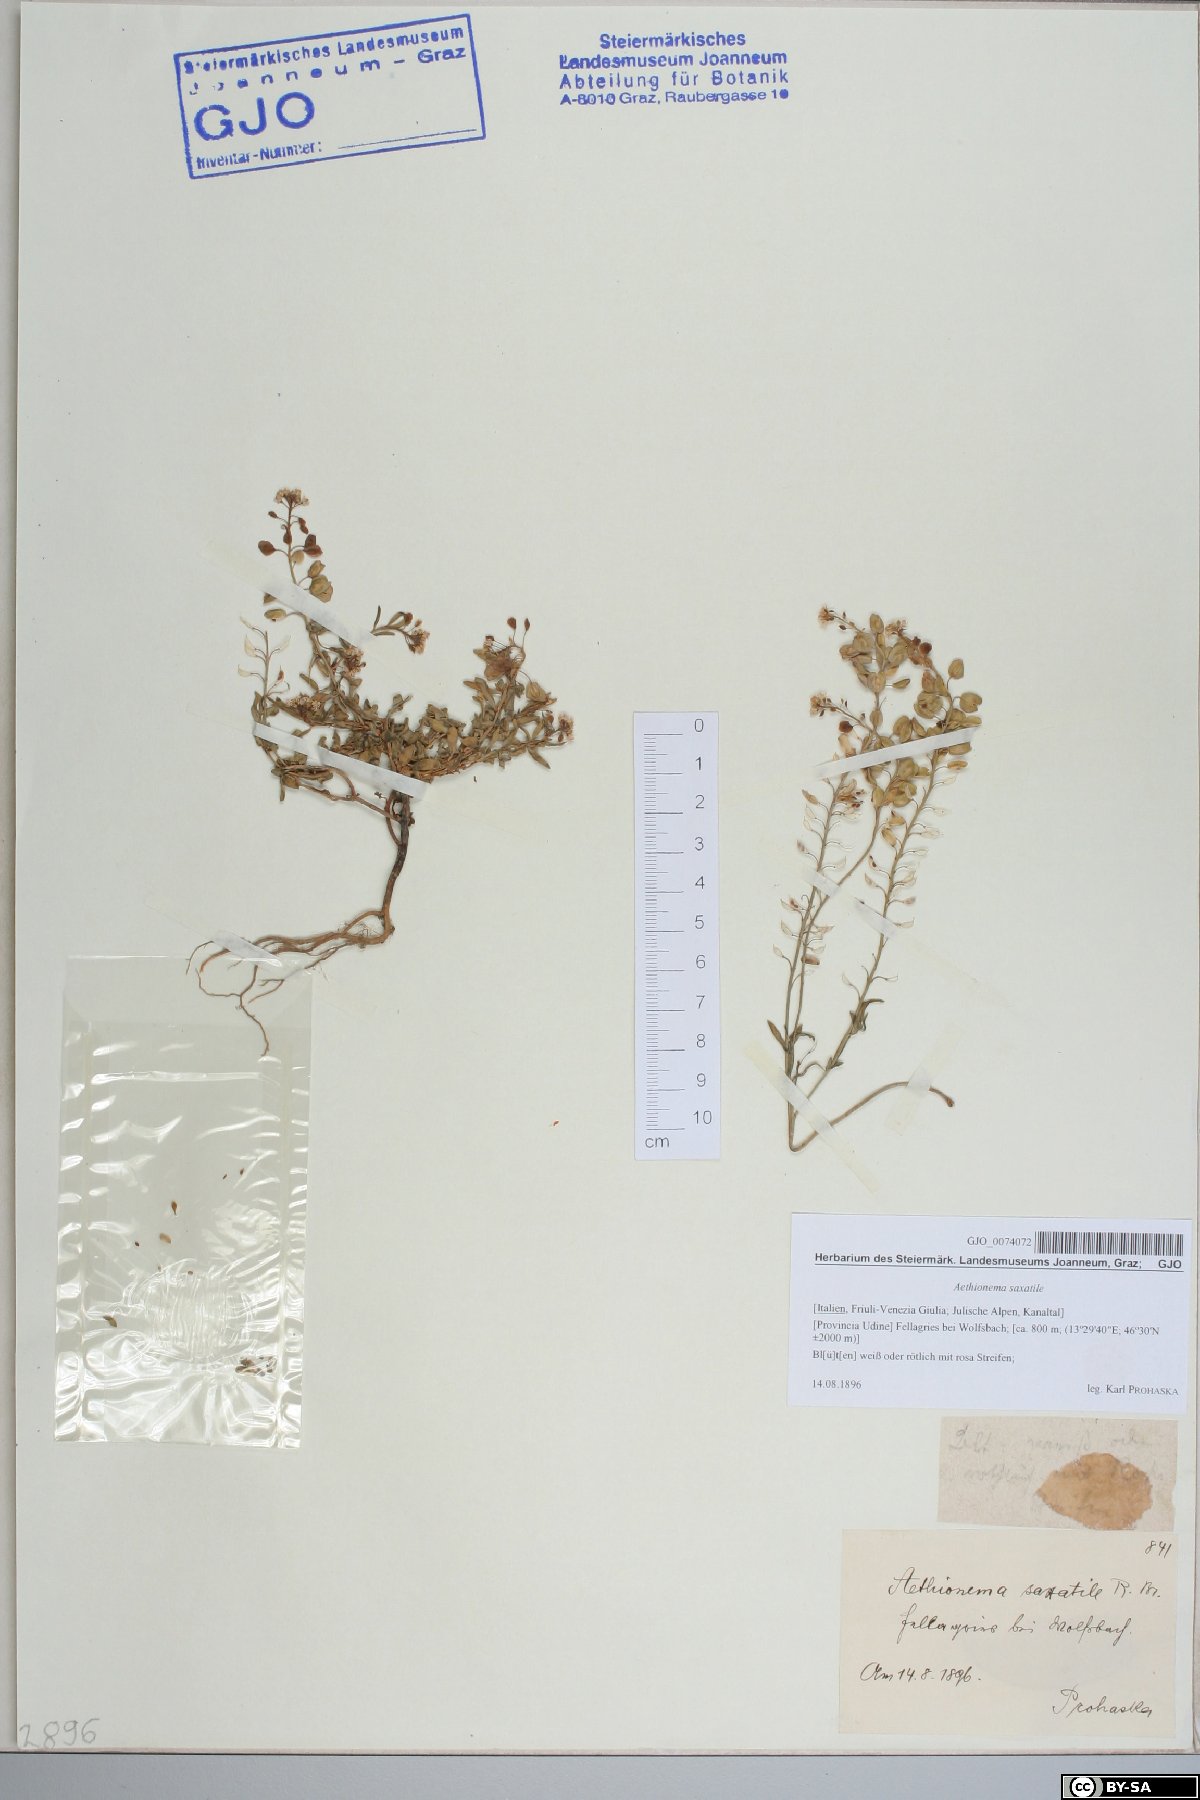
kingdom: Plantae
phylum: Tracheophyta
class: Magnoliopsida
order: Brassicales
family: Brassicaceae
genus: Aethionema
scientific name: Aethionema saxatile
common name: Burnt candytuft
